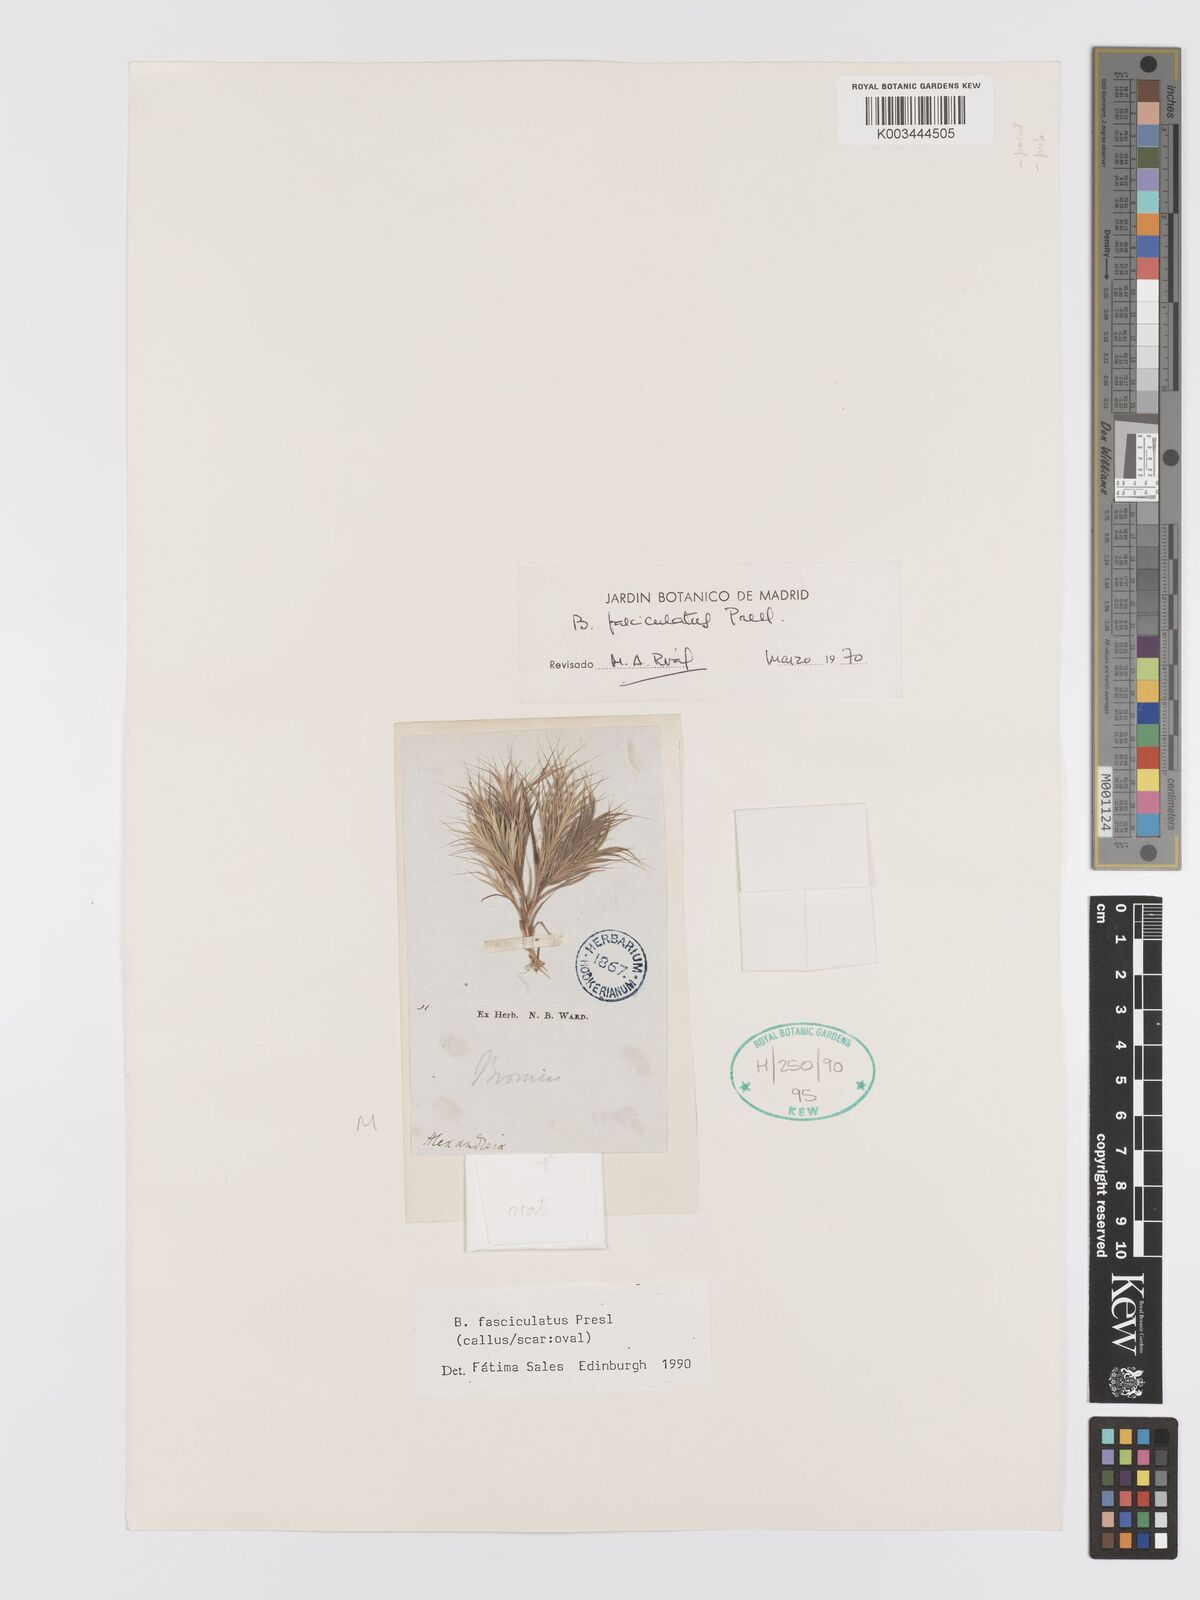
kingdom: Plantae
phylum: Tracheophyta
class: Liliopsida
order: Poales
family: Poaceae
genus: Bromus
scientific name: Bromus fasciculatus
